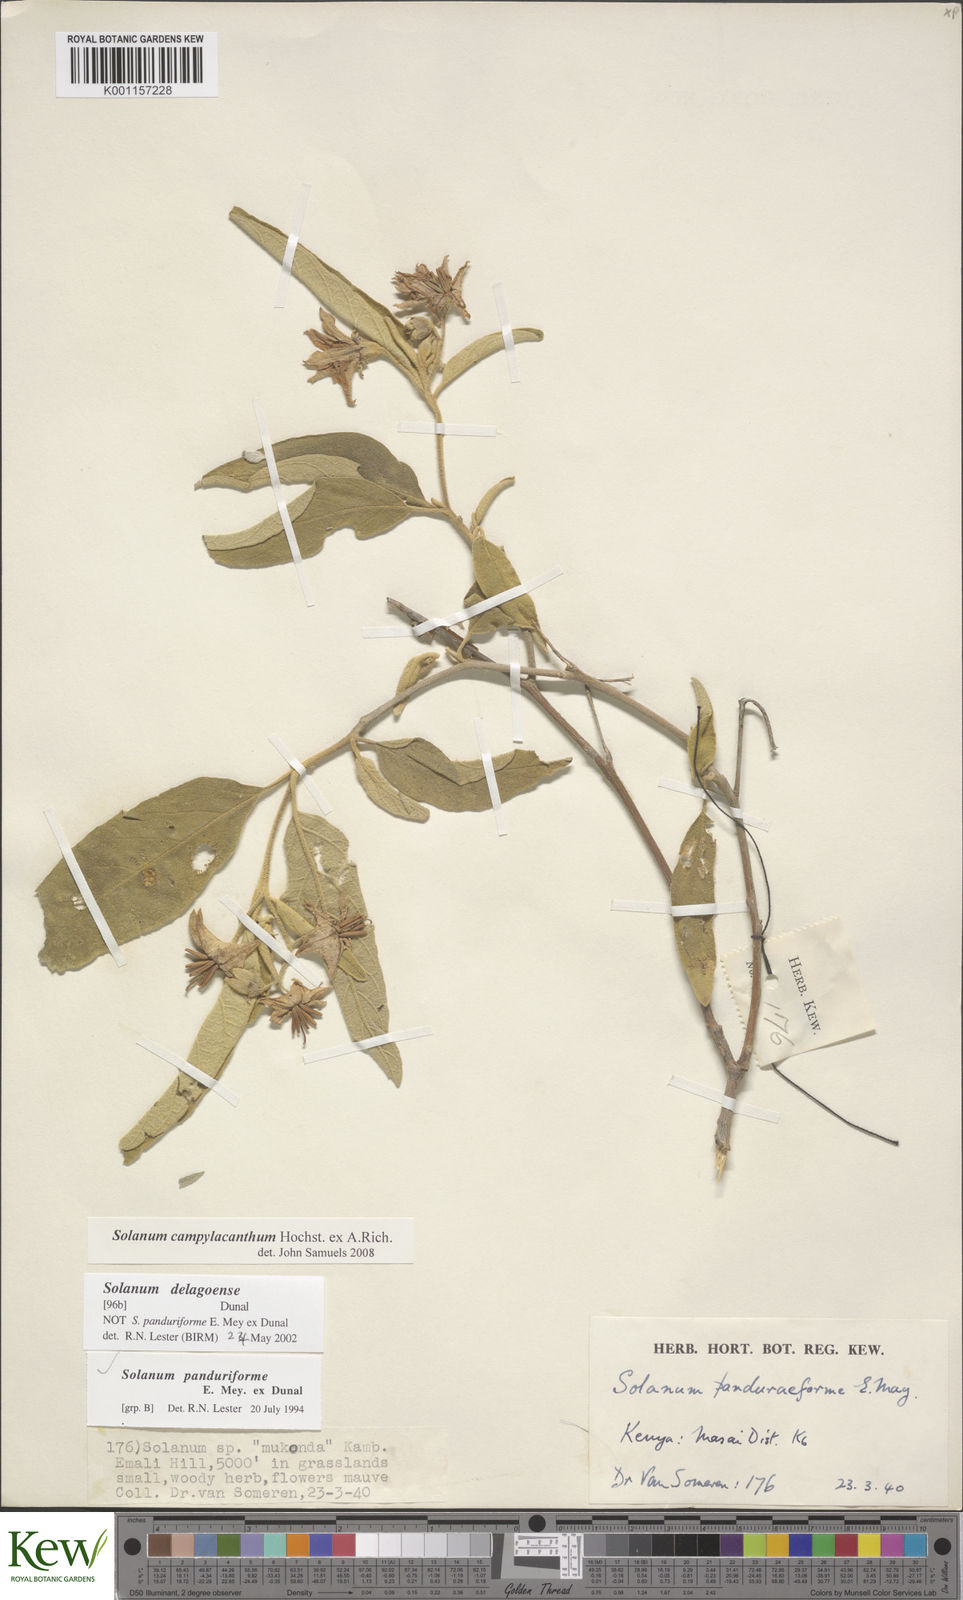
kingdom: Plantae
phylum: Tracheophyta
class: Magnoliopsida
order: Solanales
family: Solanaceae
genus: Solanum
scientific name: Solanum campylacanthum
